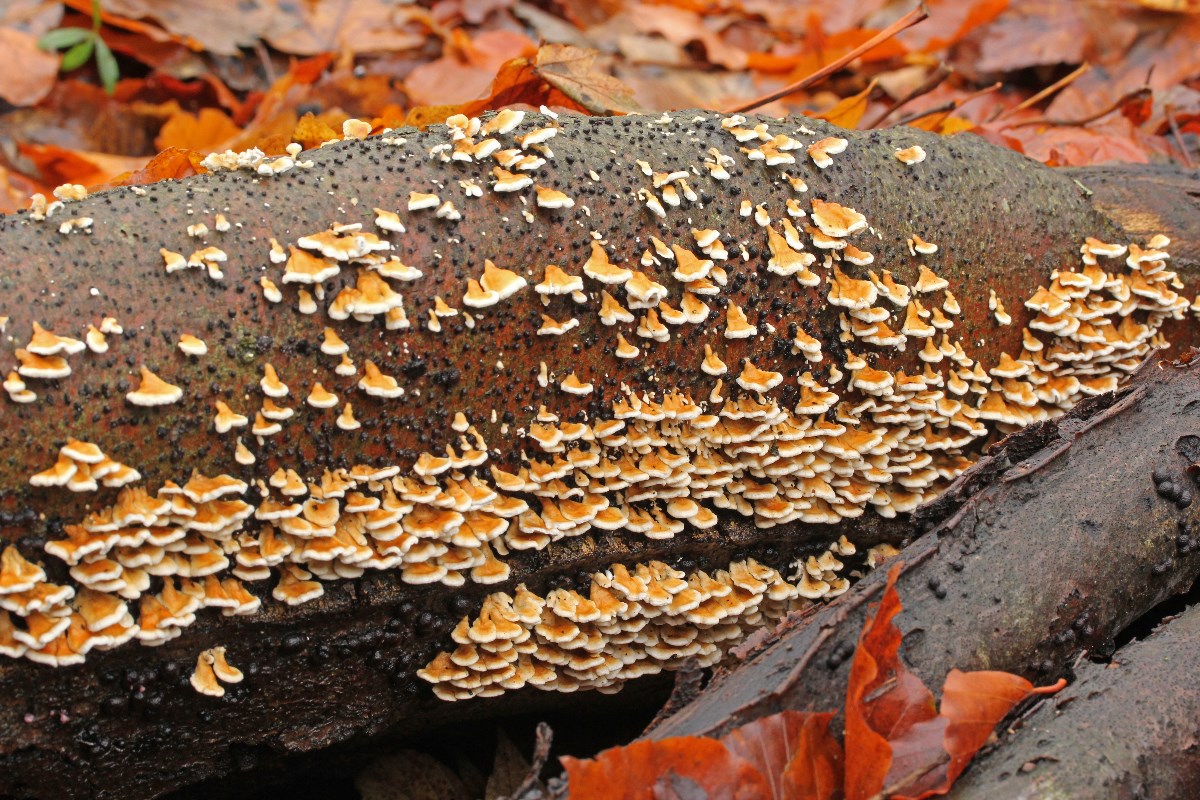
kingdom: Fungi
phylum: Basidiomycota
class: Agaricomycetes
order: Amylocorticiales
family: Amylocorticiaceae
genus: Plicaturopsis
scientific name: Plicaturopsis crispa
